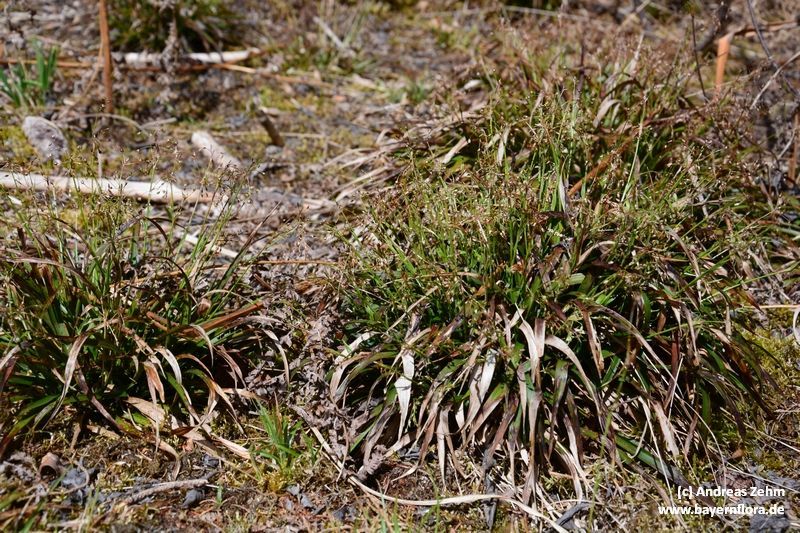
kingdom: Plantae
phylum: Tracheophyta
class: Liliopsida
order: Poales
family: Juncaceae
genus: Luzula
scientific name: Luzula pilosa
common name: Hairy wood-rush
